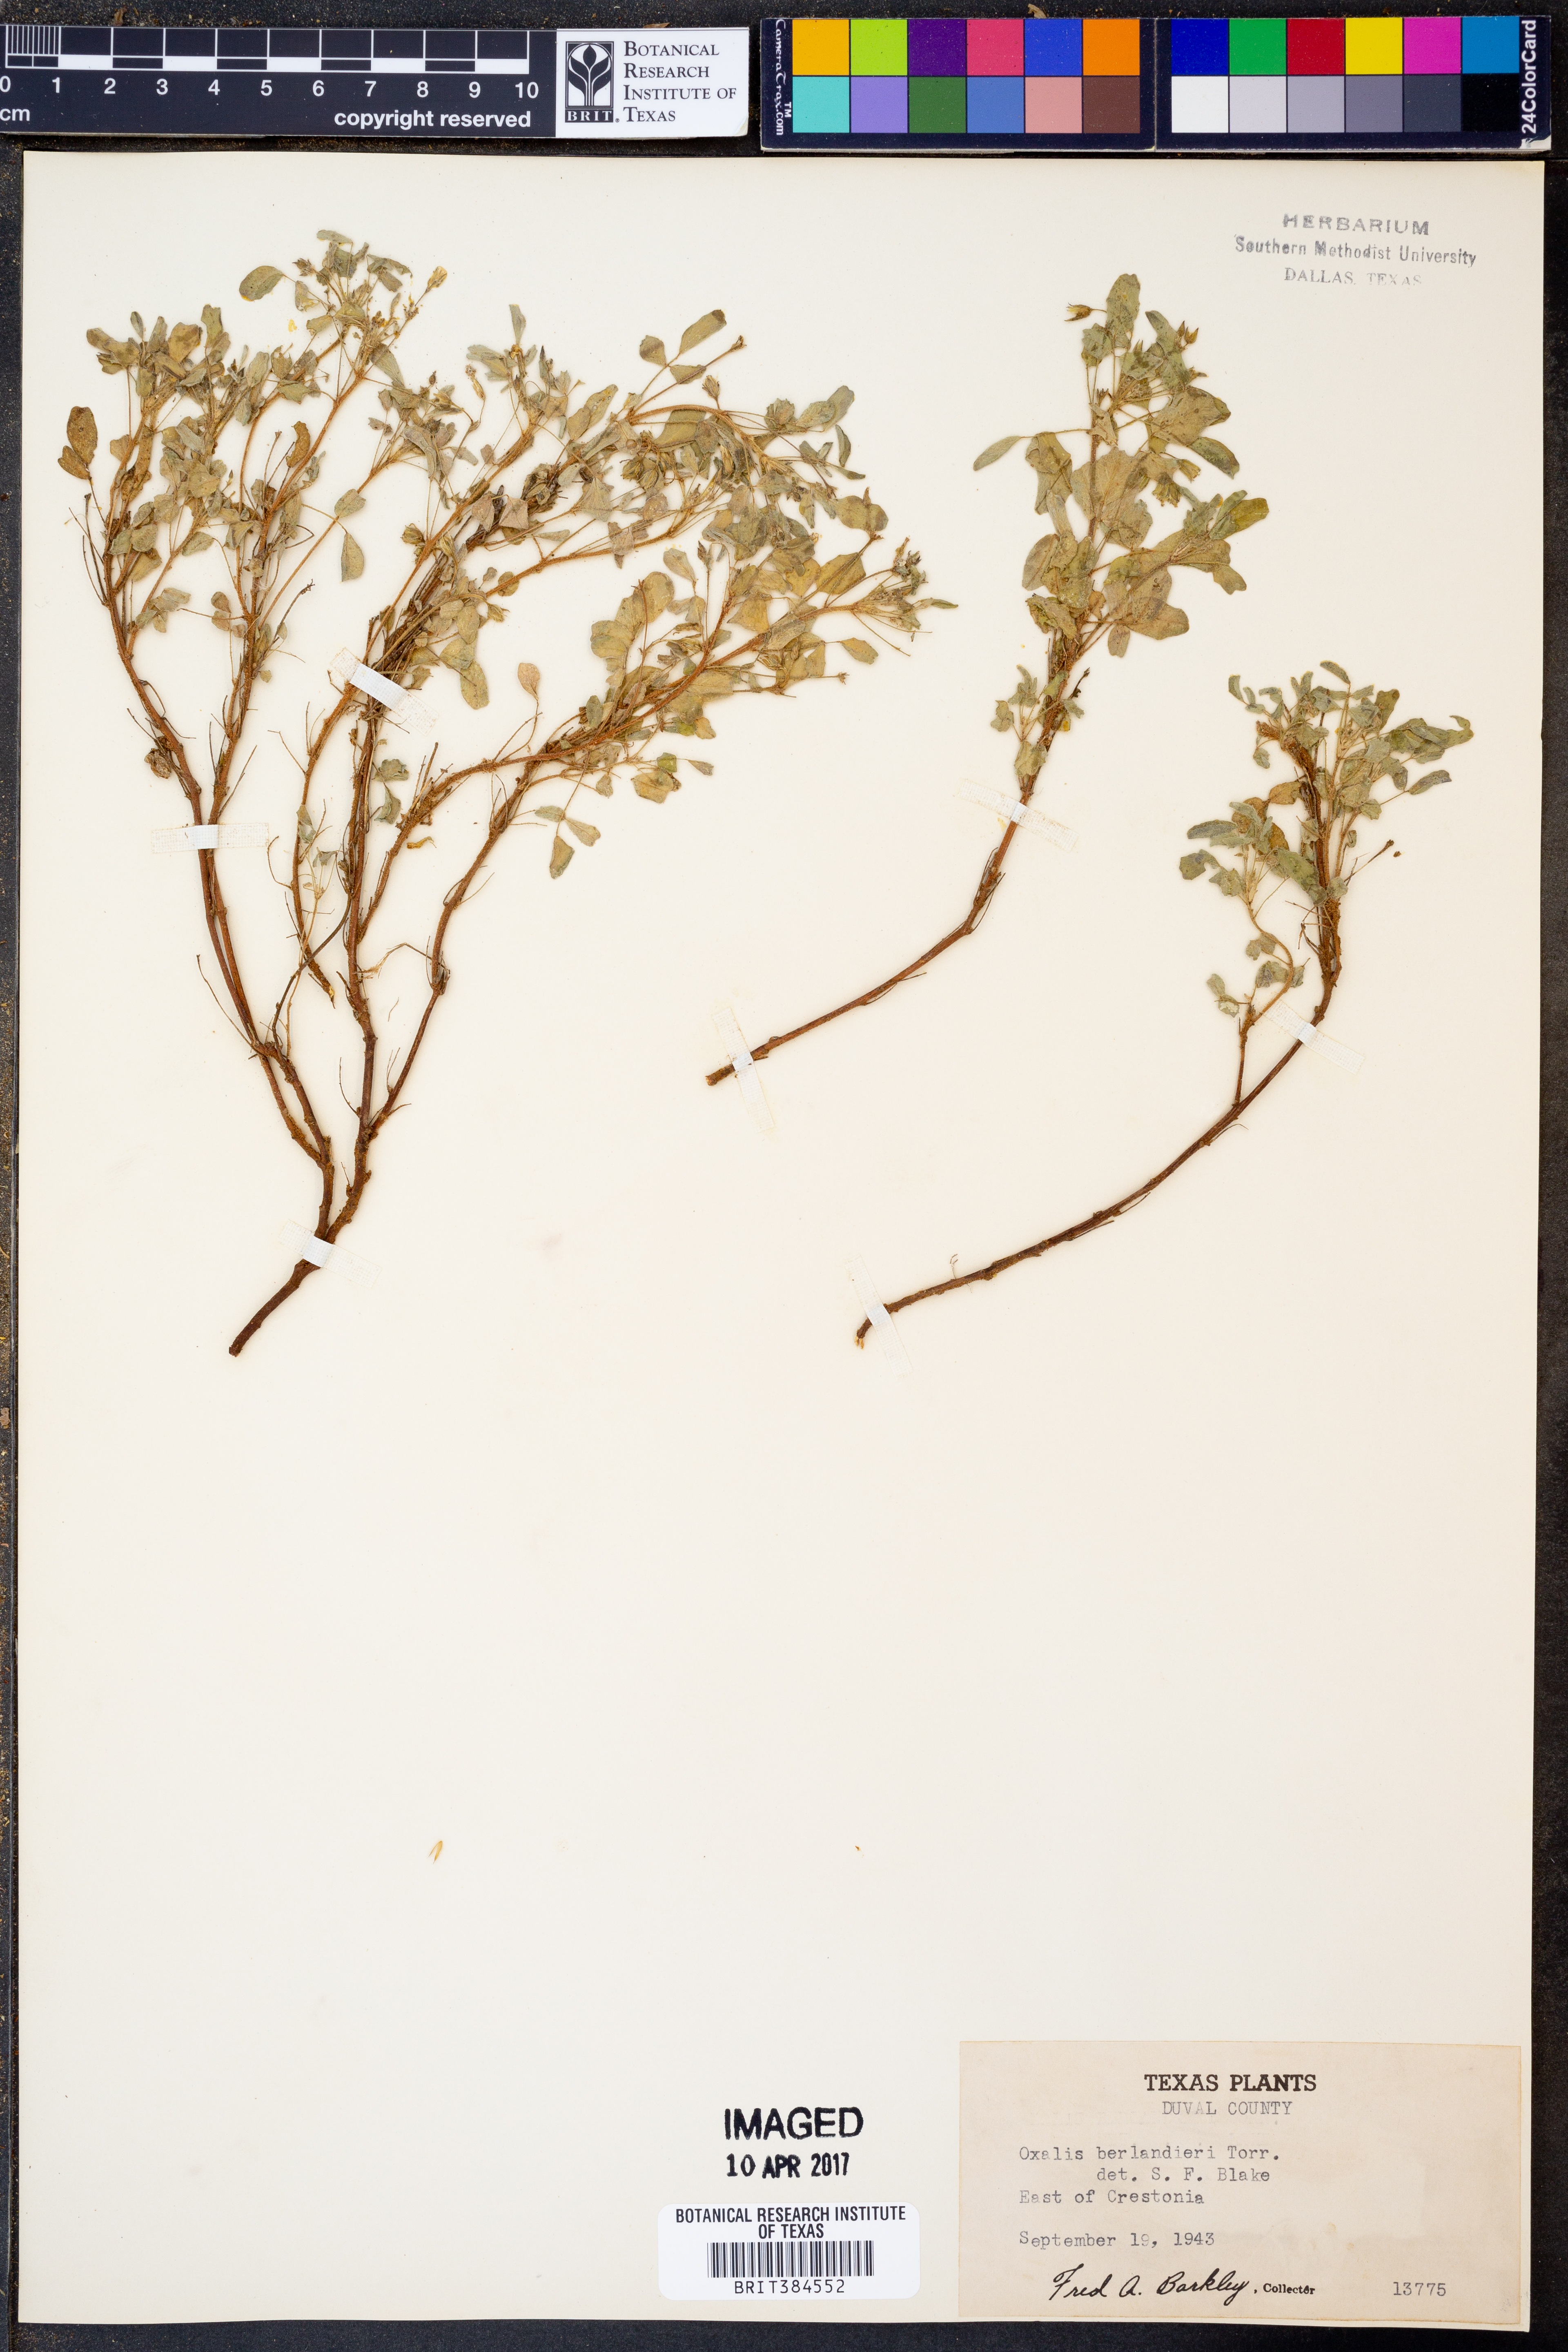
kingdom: Plantae
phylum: Tracheophyta
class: Magnoliopsida
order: Oxalidales
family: Oxalidaceae
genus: Oxalis
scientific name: Oxalis frutescens
